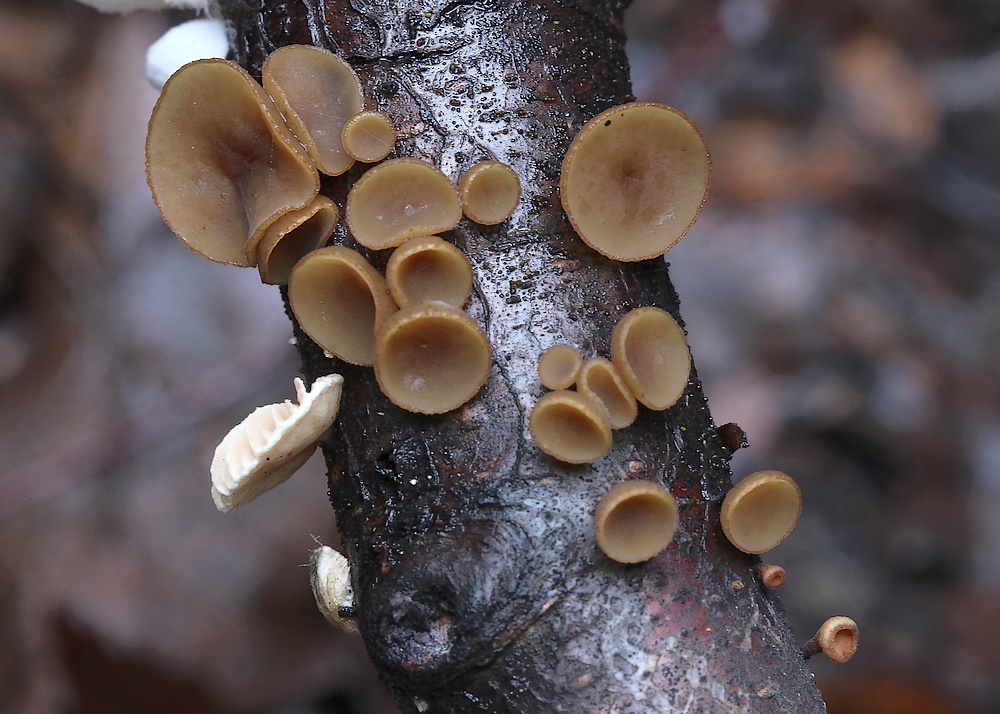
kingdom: Fungi
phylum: Ascomycota
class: Leotiomycetes
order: Helotiales
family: Rutstroemiaceae
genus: Rutstroemia
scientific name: Rutstroemia firma
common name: gren-brunskive
